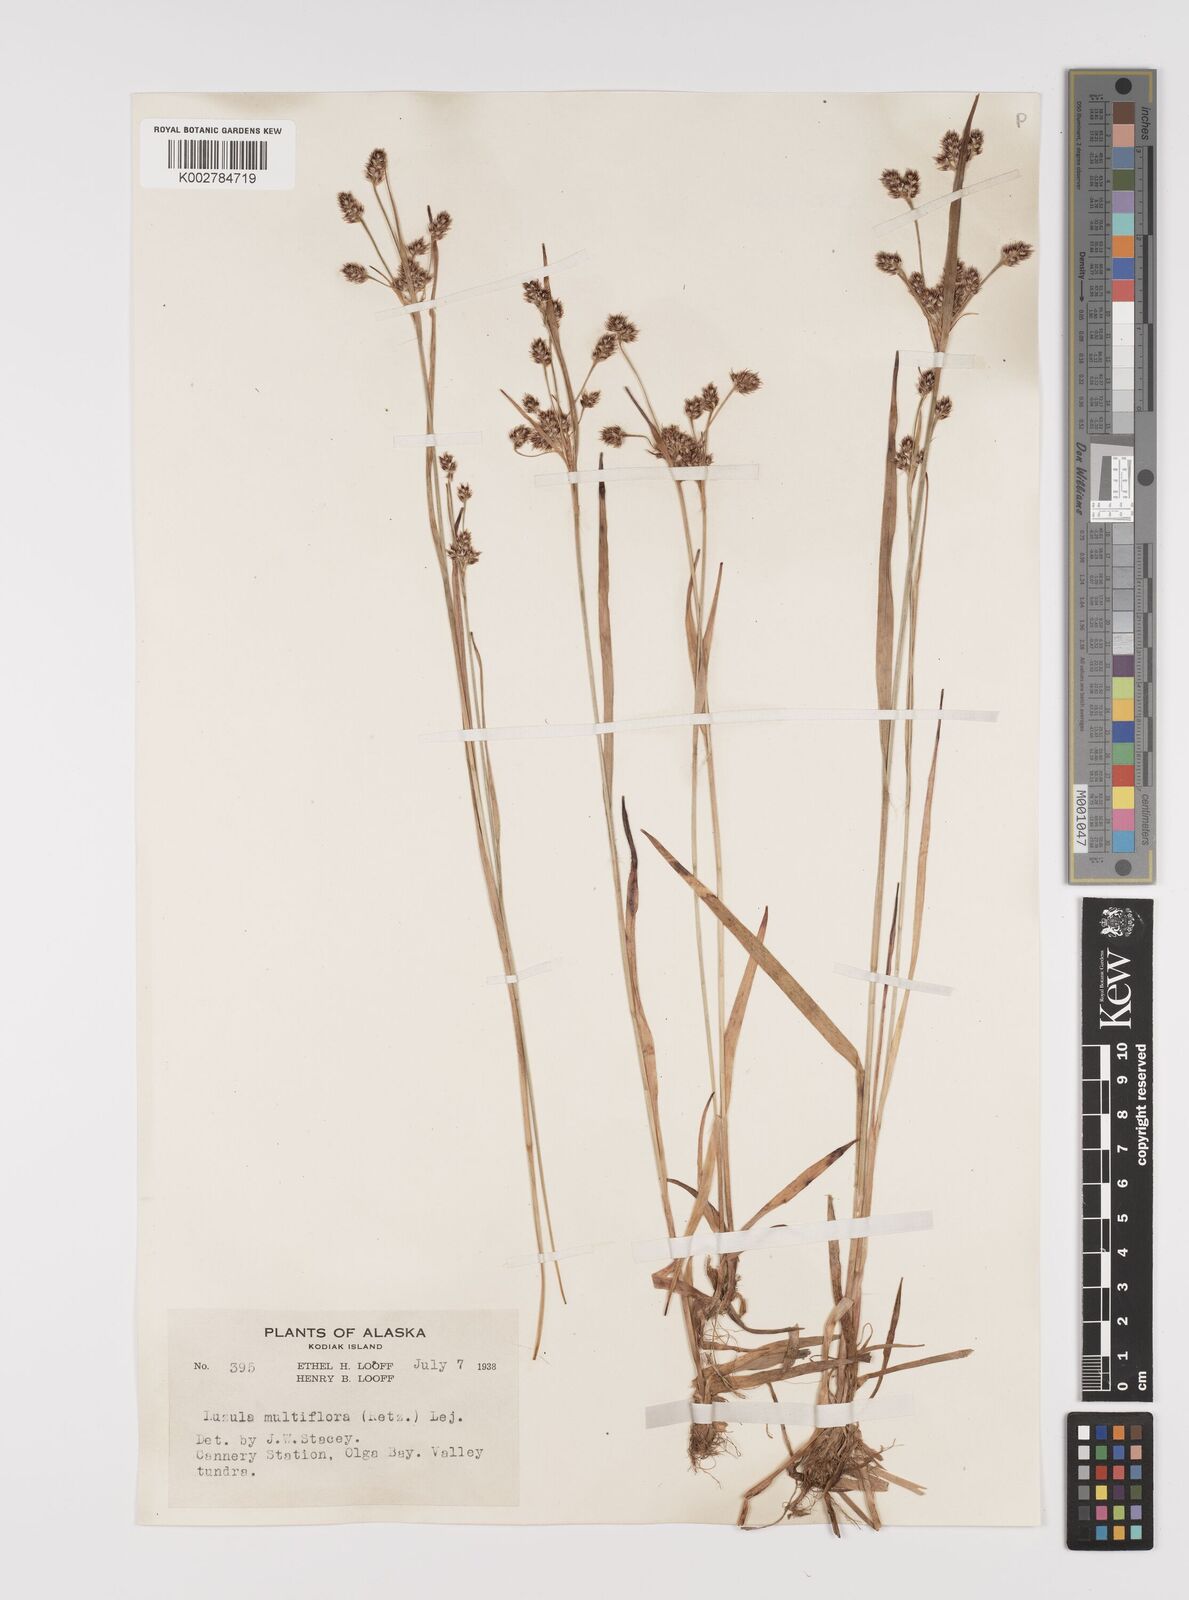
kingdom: Plantae
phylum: Tracheophyta
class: Liliopsida
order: Poales
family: Juncaceae
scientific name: Juncaceae
